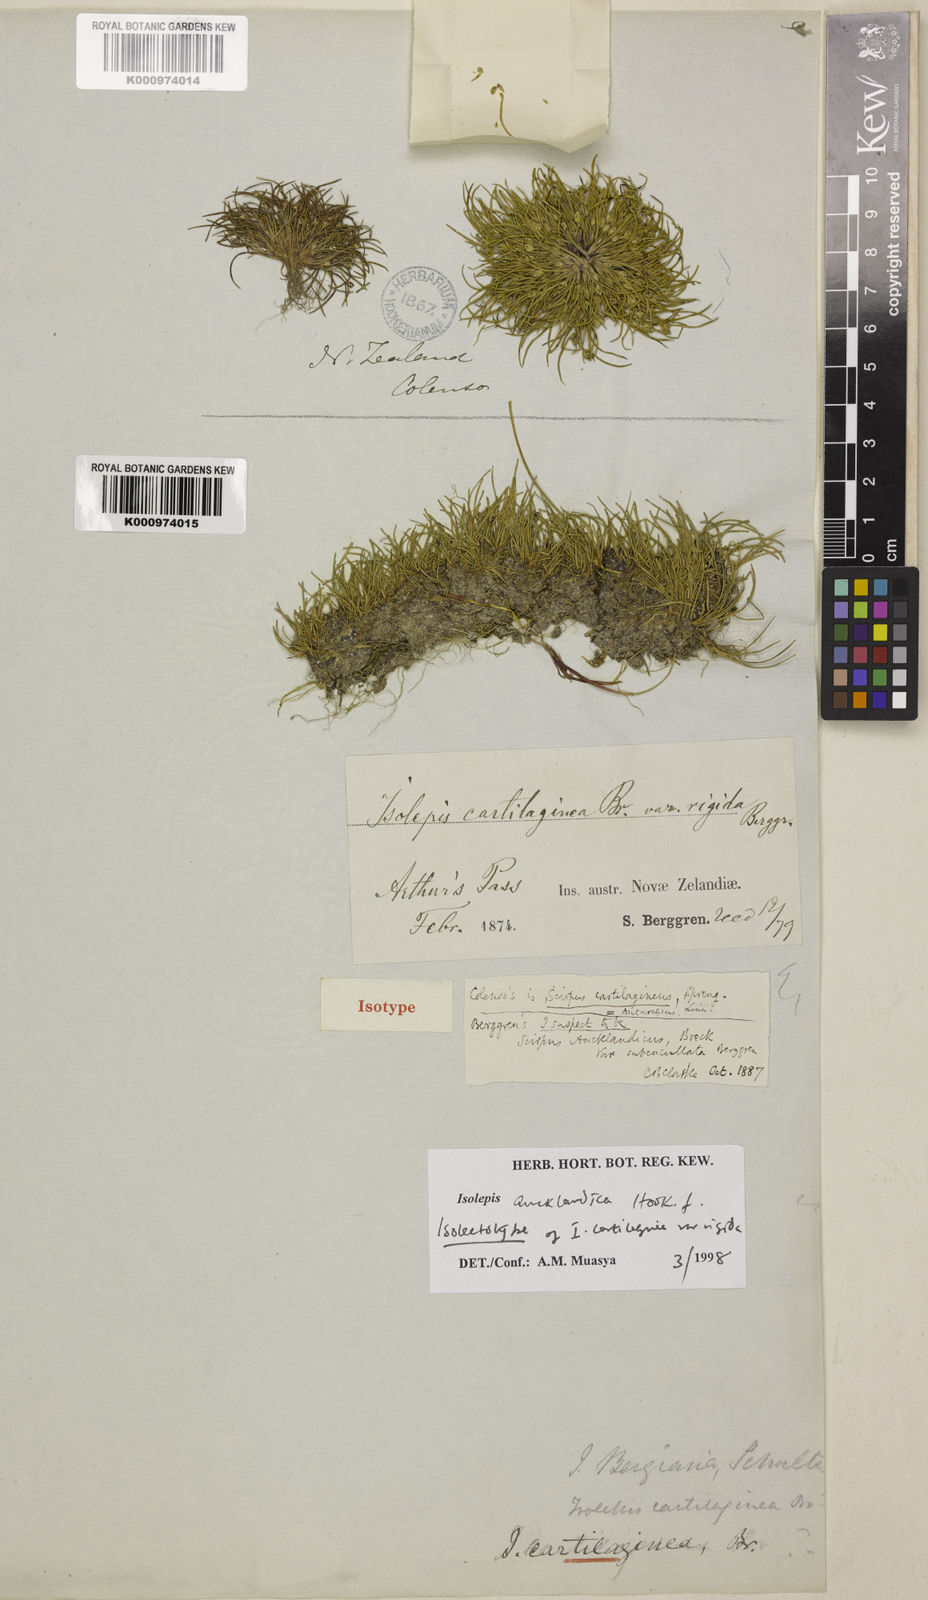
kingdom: Plantae
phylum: Tracheophyta
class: Liliopsida
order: Poales
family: Cyperaceae
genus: Isolepis
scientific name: Isolepis aucklandica
